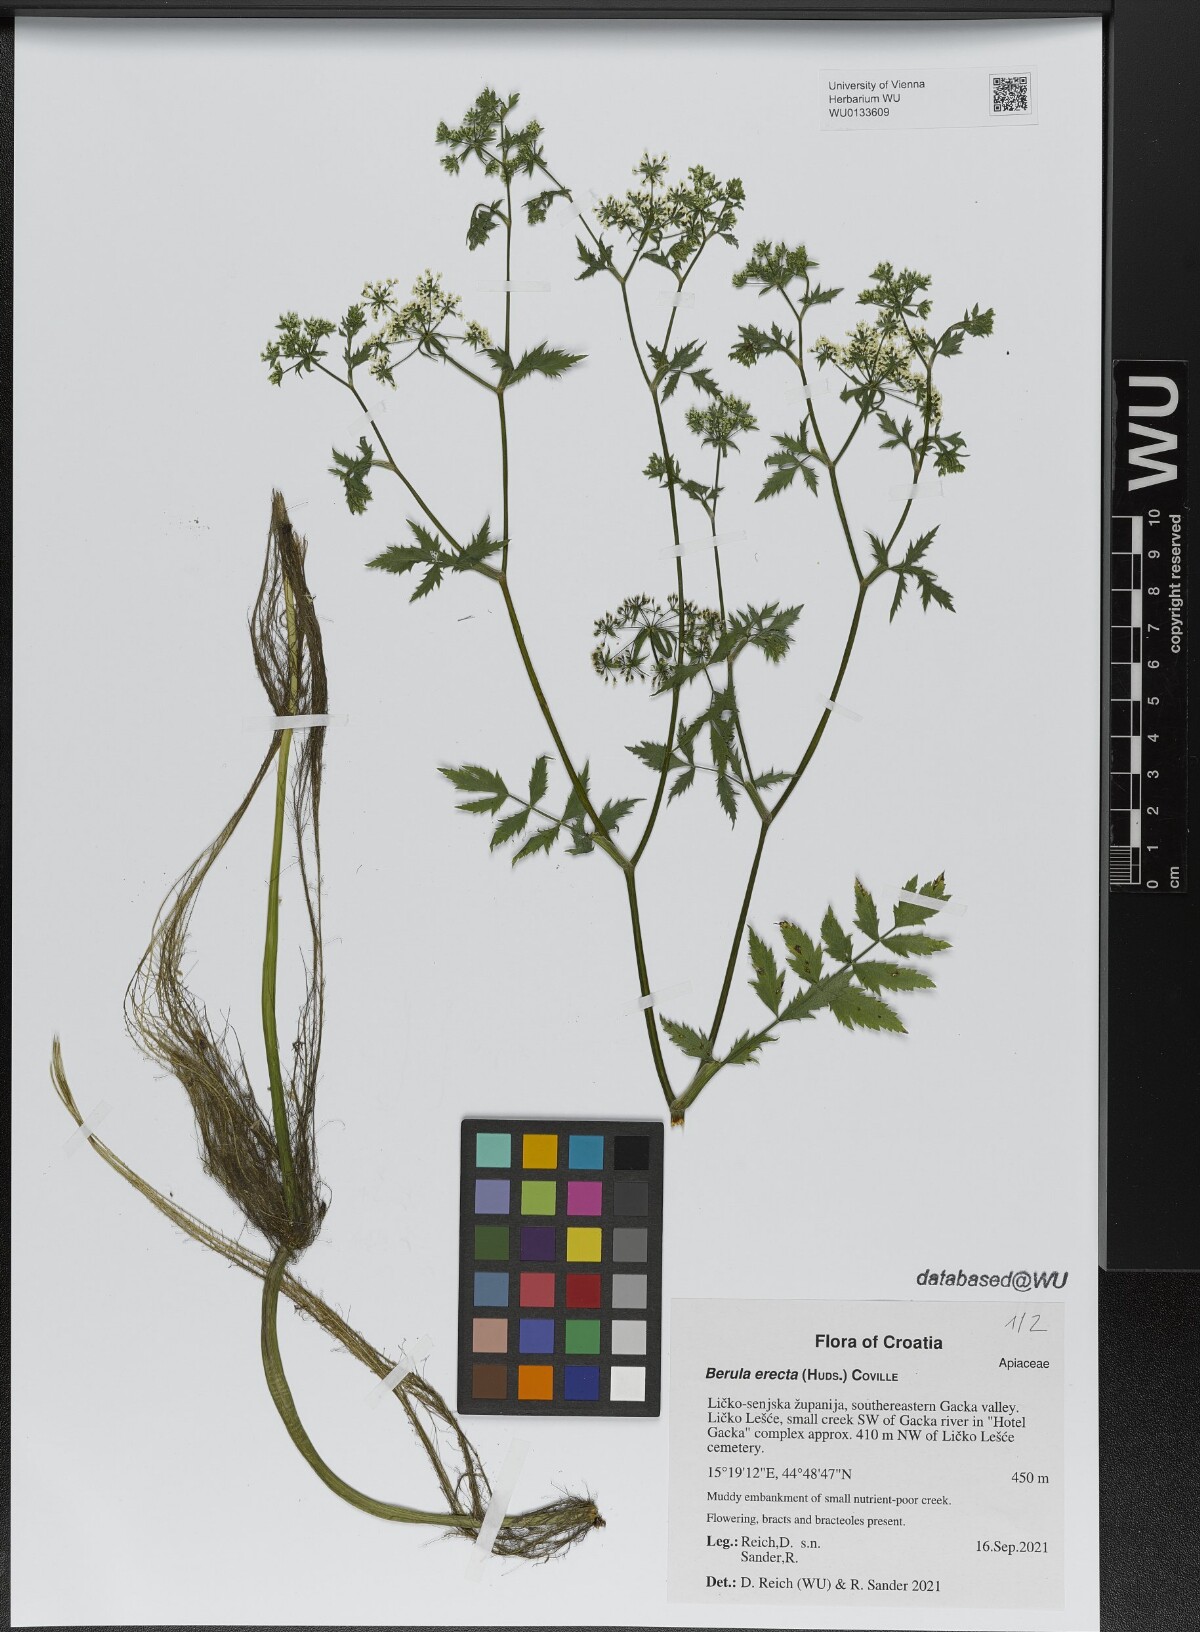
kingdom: Plantae
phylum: Tracheophyta
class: Magnoliopsida
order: Apiales
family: Apiaceae
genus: Berula
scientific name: Berula erecta
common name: Lesser water-parsnip
